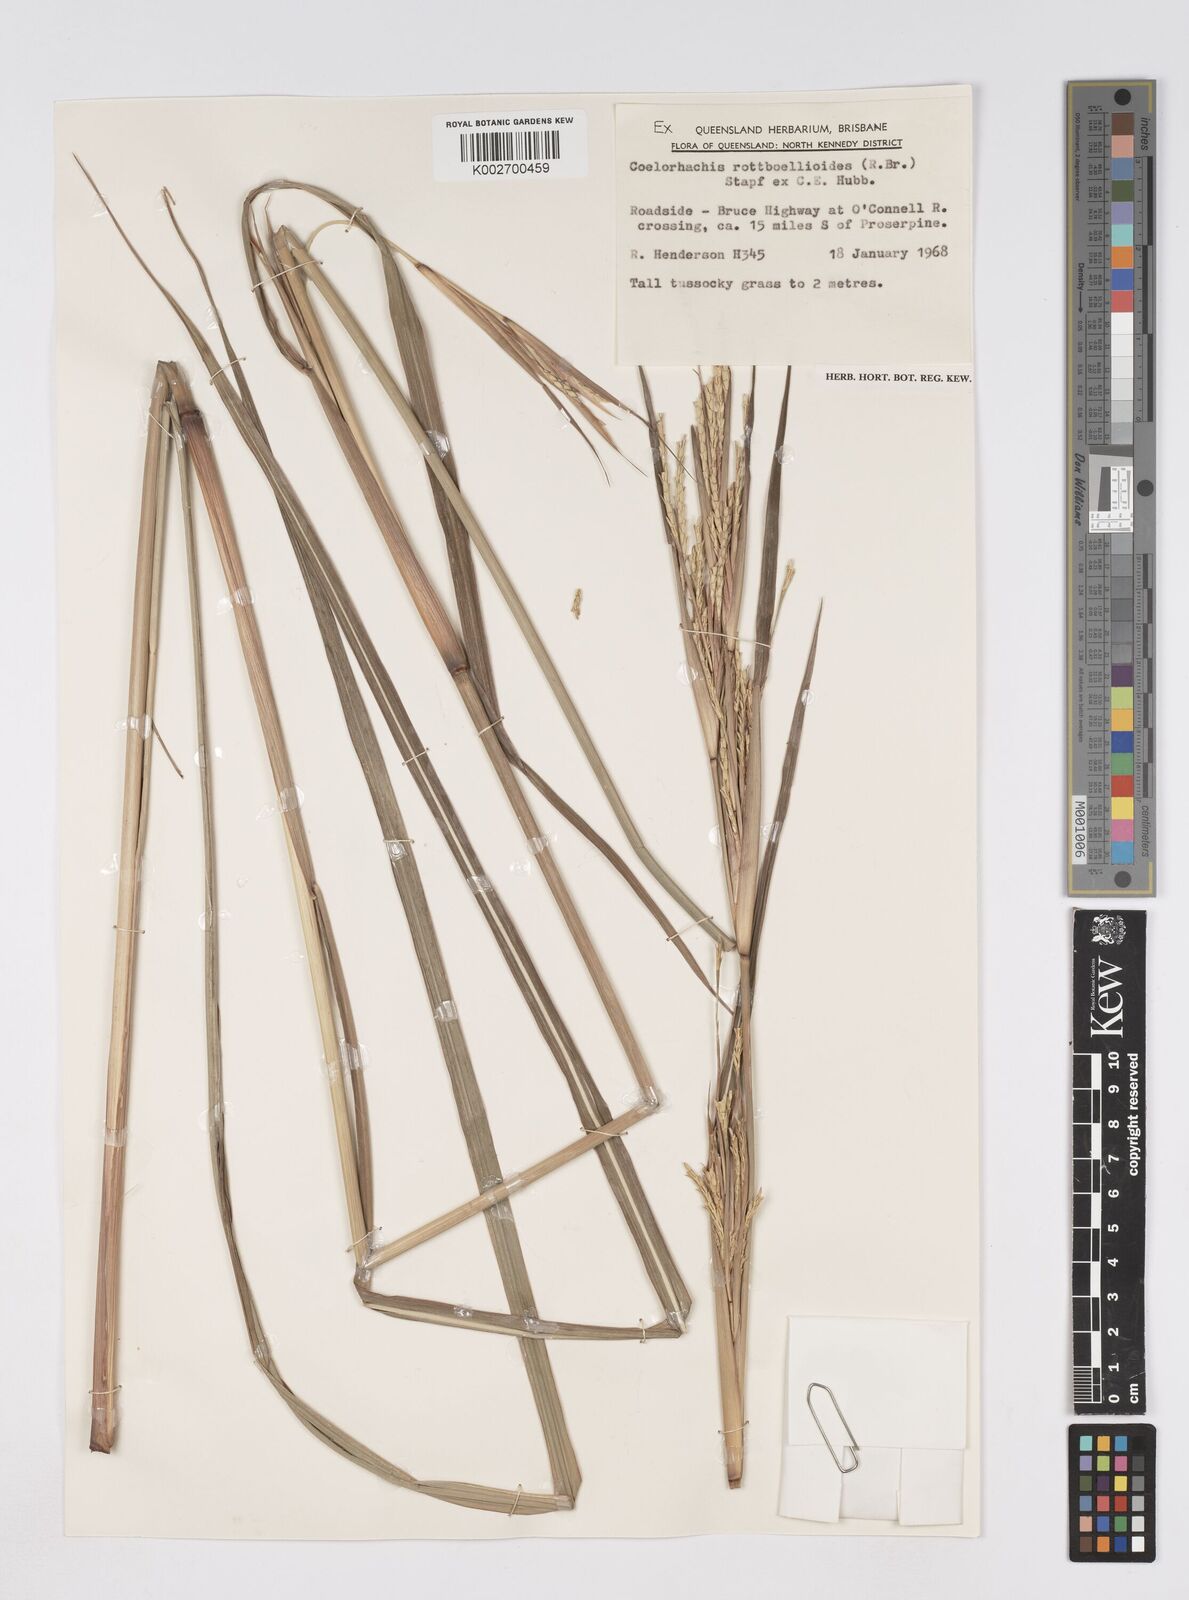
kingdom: Plantae
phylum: Tracheophyta
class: Liliopsida
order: Poales
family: Poaceae
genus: Rottboellia
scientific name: Rottboellia rottboellioides
